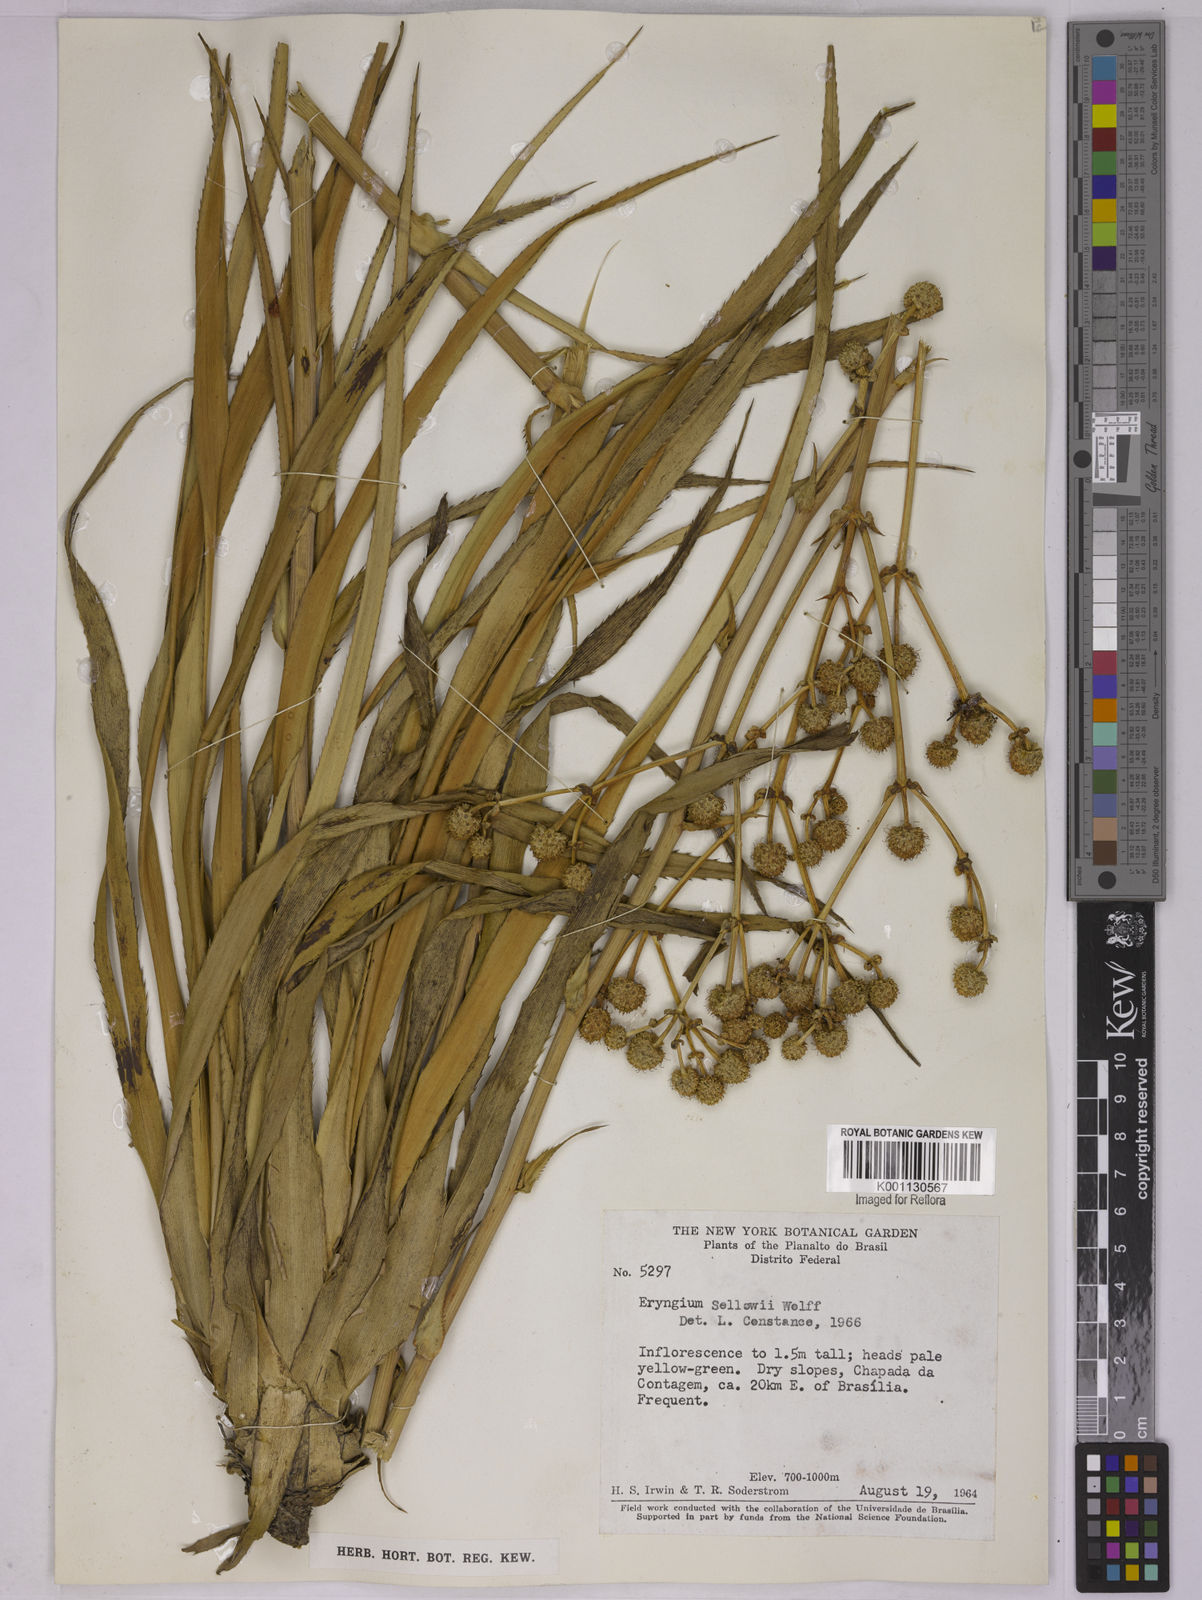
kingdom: Plantae
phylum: Tracheophyta
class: Magnoliopsida
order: Apiales
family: Apiaceae
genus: Eryngium
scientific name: Eryngium sellowii
